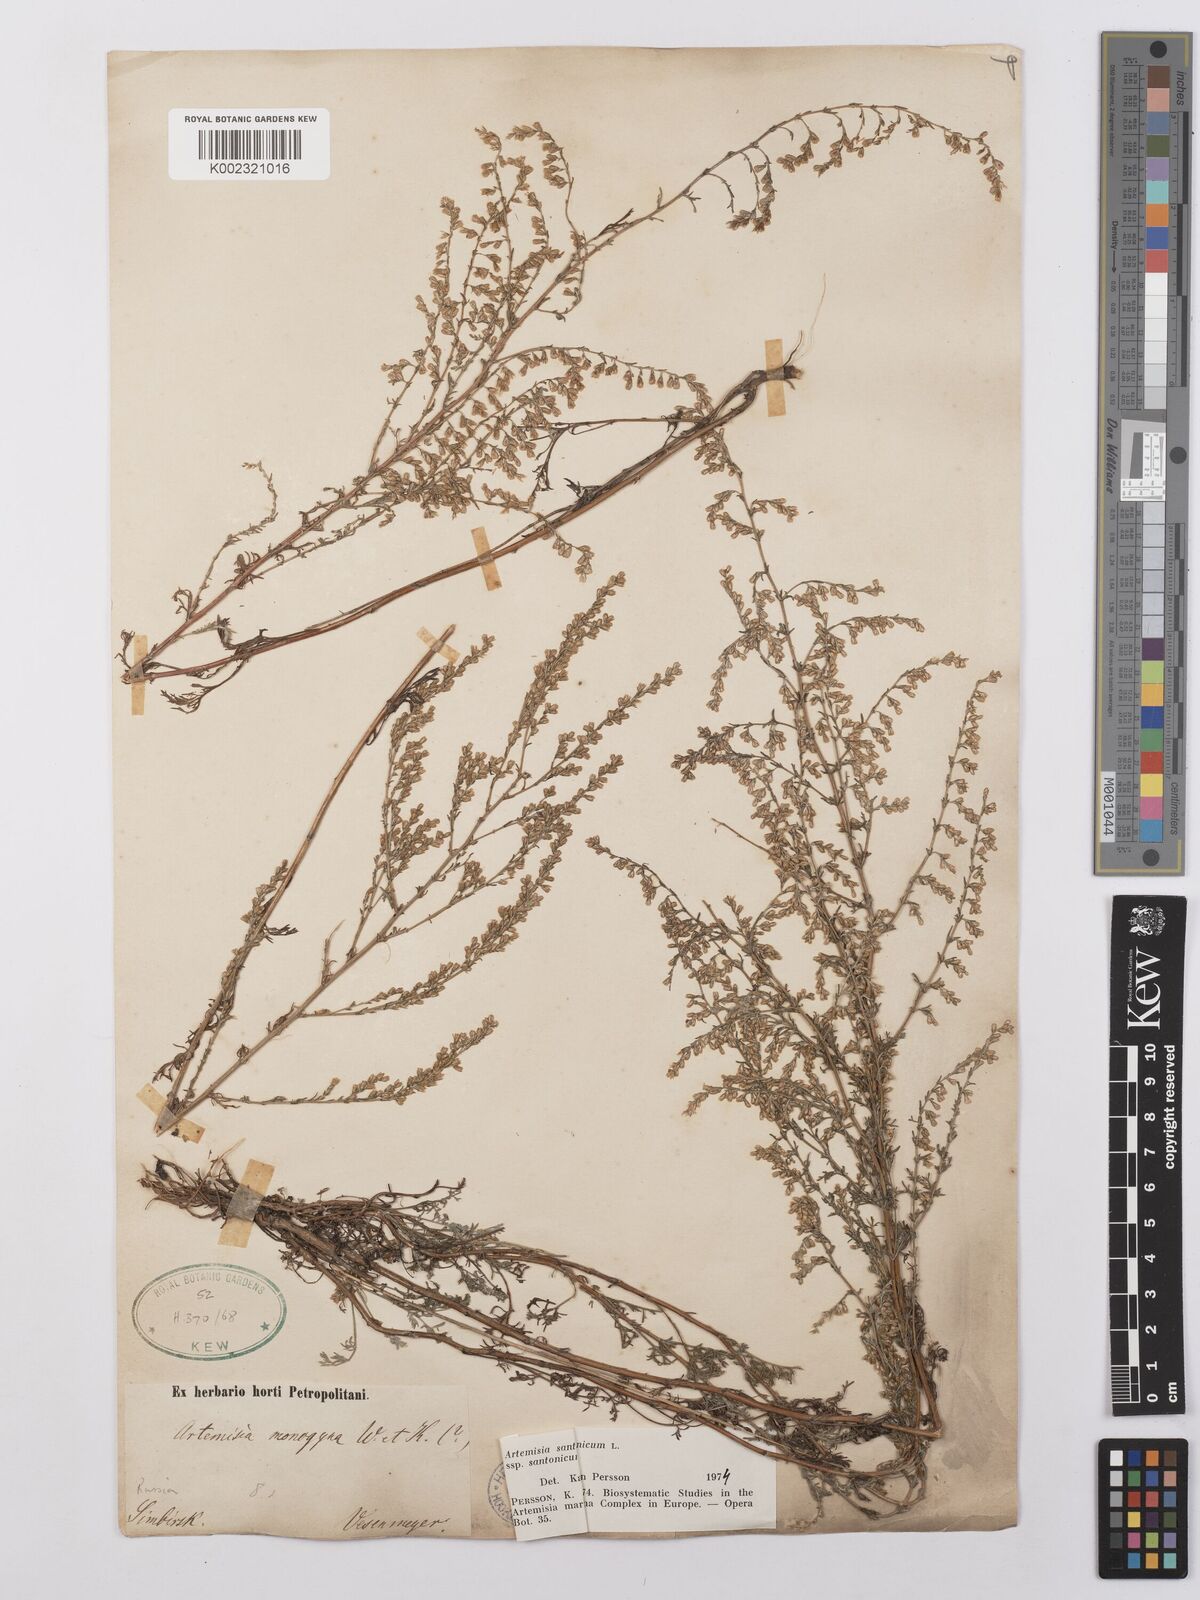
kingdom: Plantae
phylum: Tracheophyta
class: Magnoliopsida
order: Asterales
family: Asteraceae
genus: Artemisia
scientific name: Artemisia santonicum
